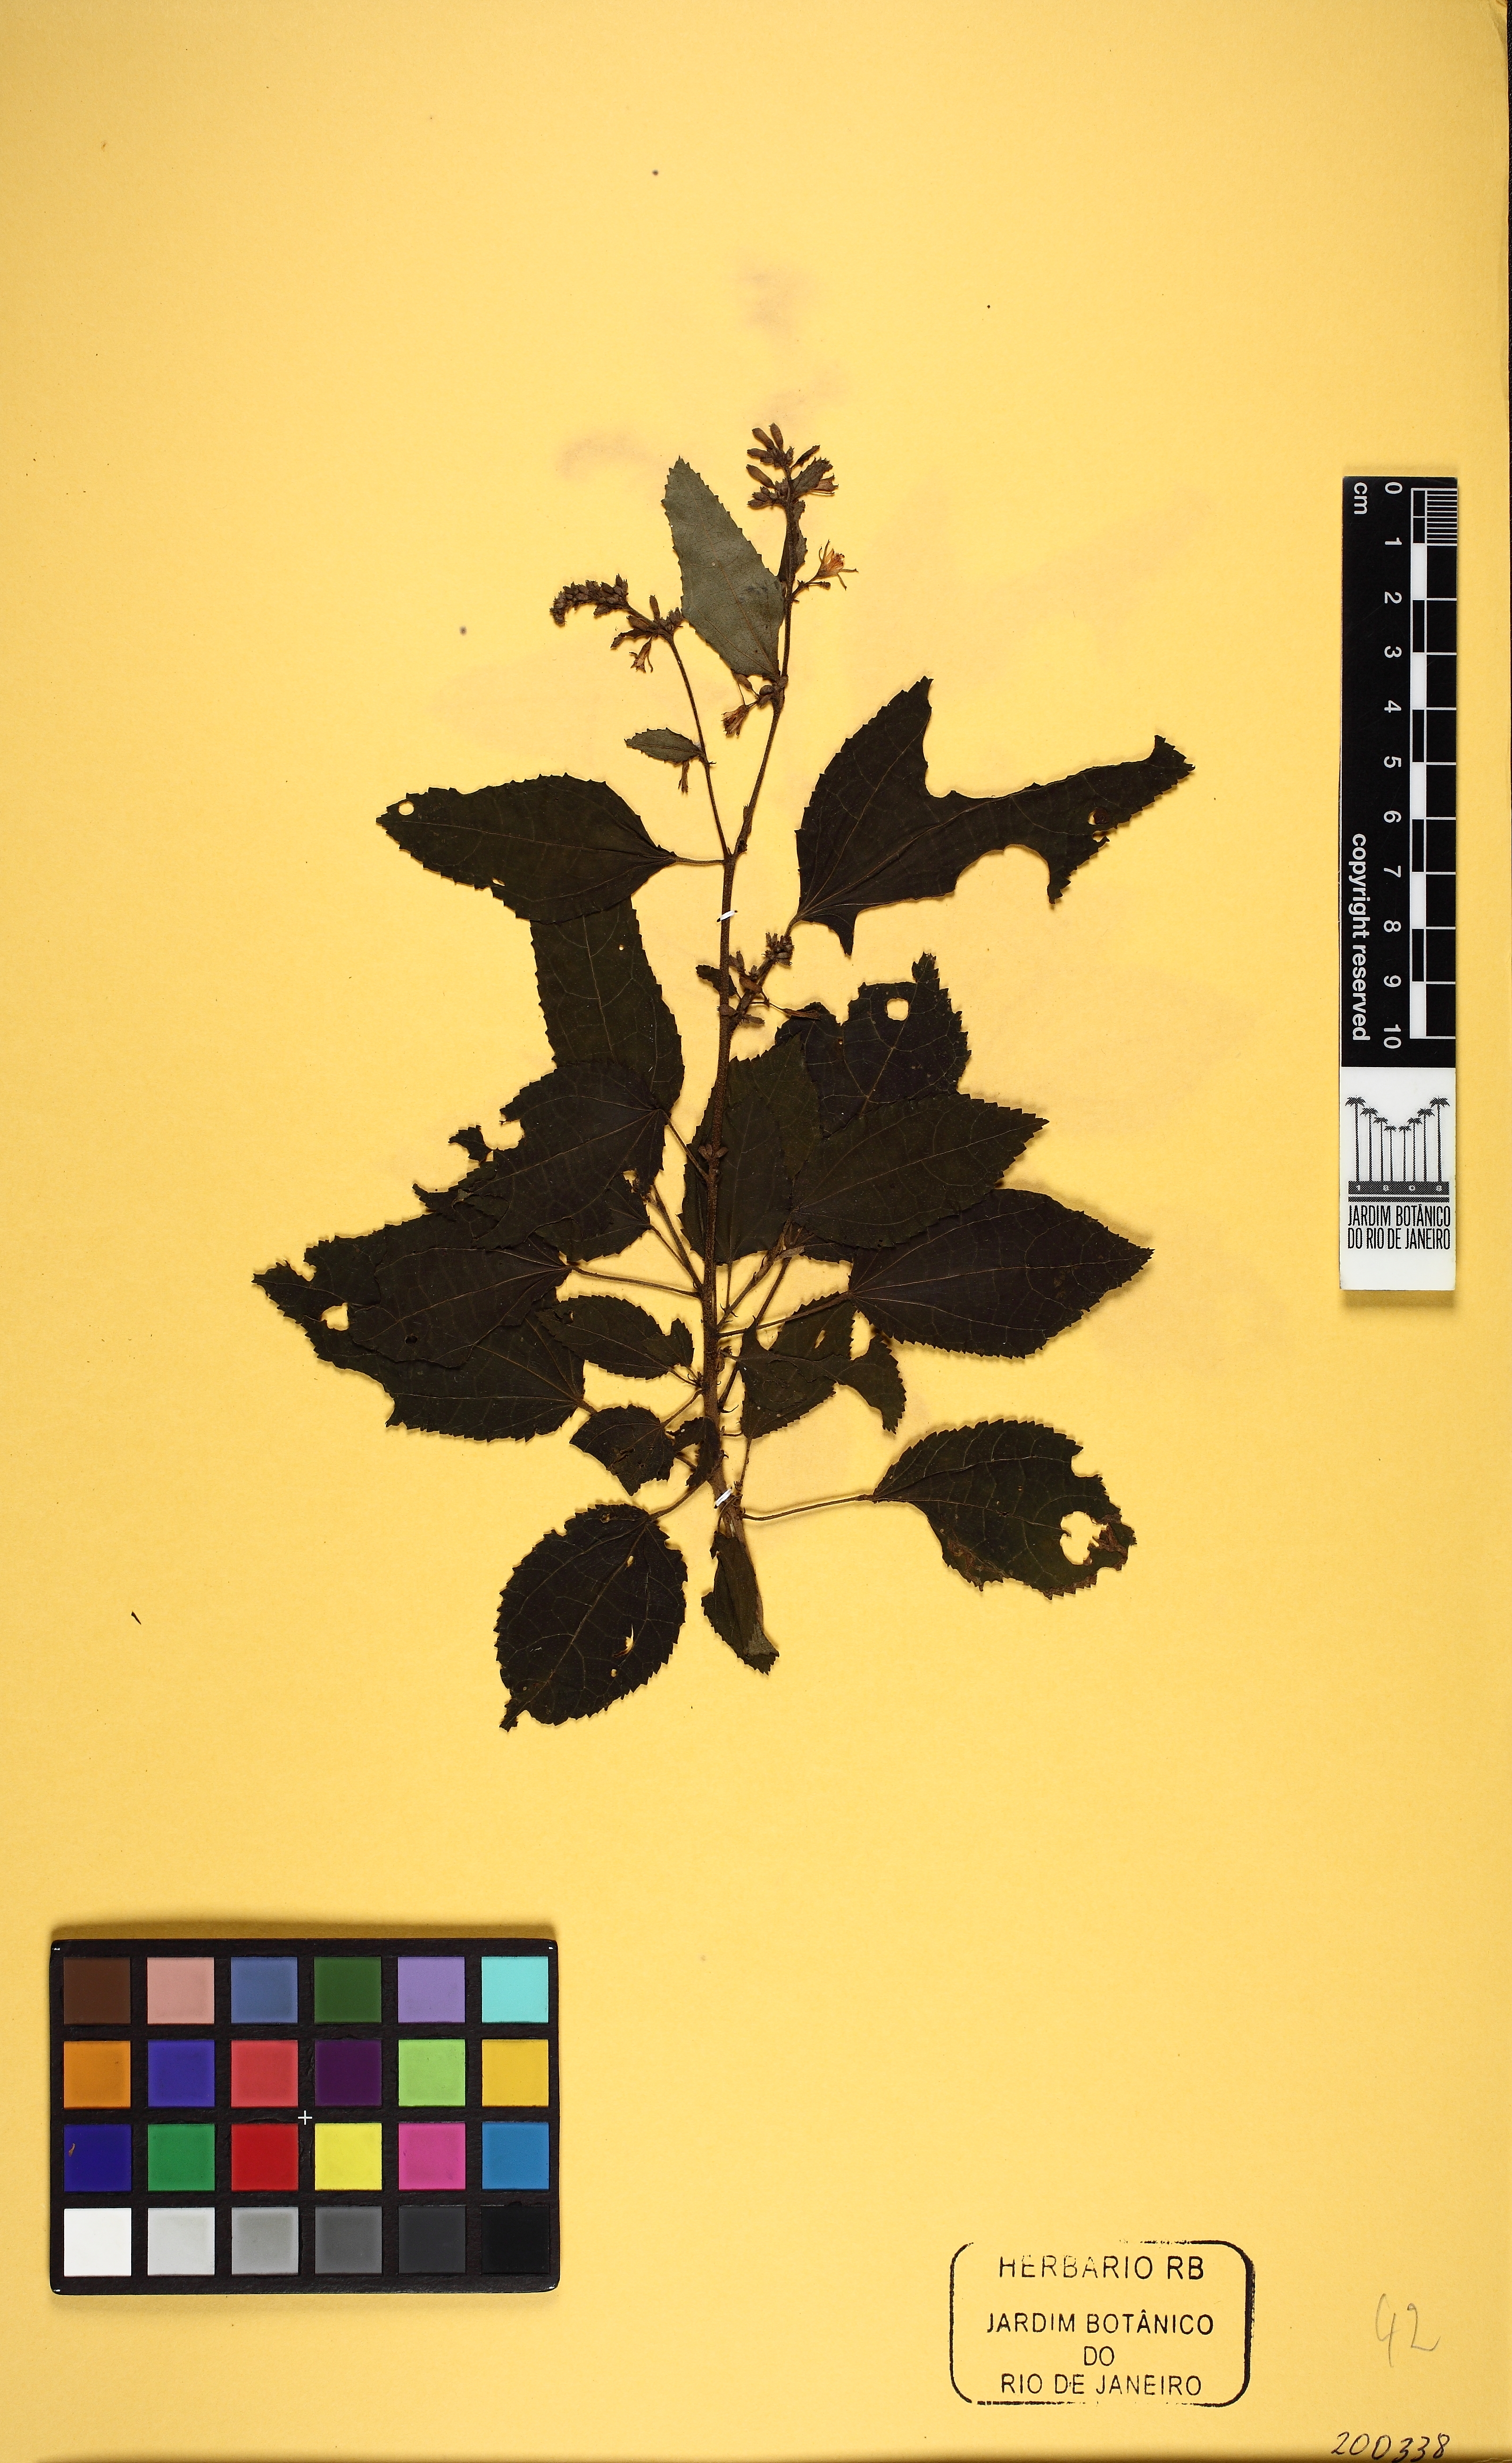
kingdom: Plantae
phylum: Tracheophyta
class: Magnoliopsida
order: Malvales
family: Malvaceae
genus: Triumfetta
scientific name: Triumfetta obscura
